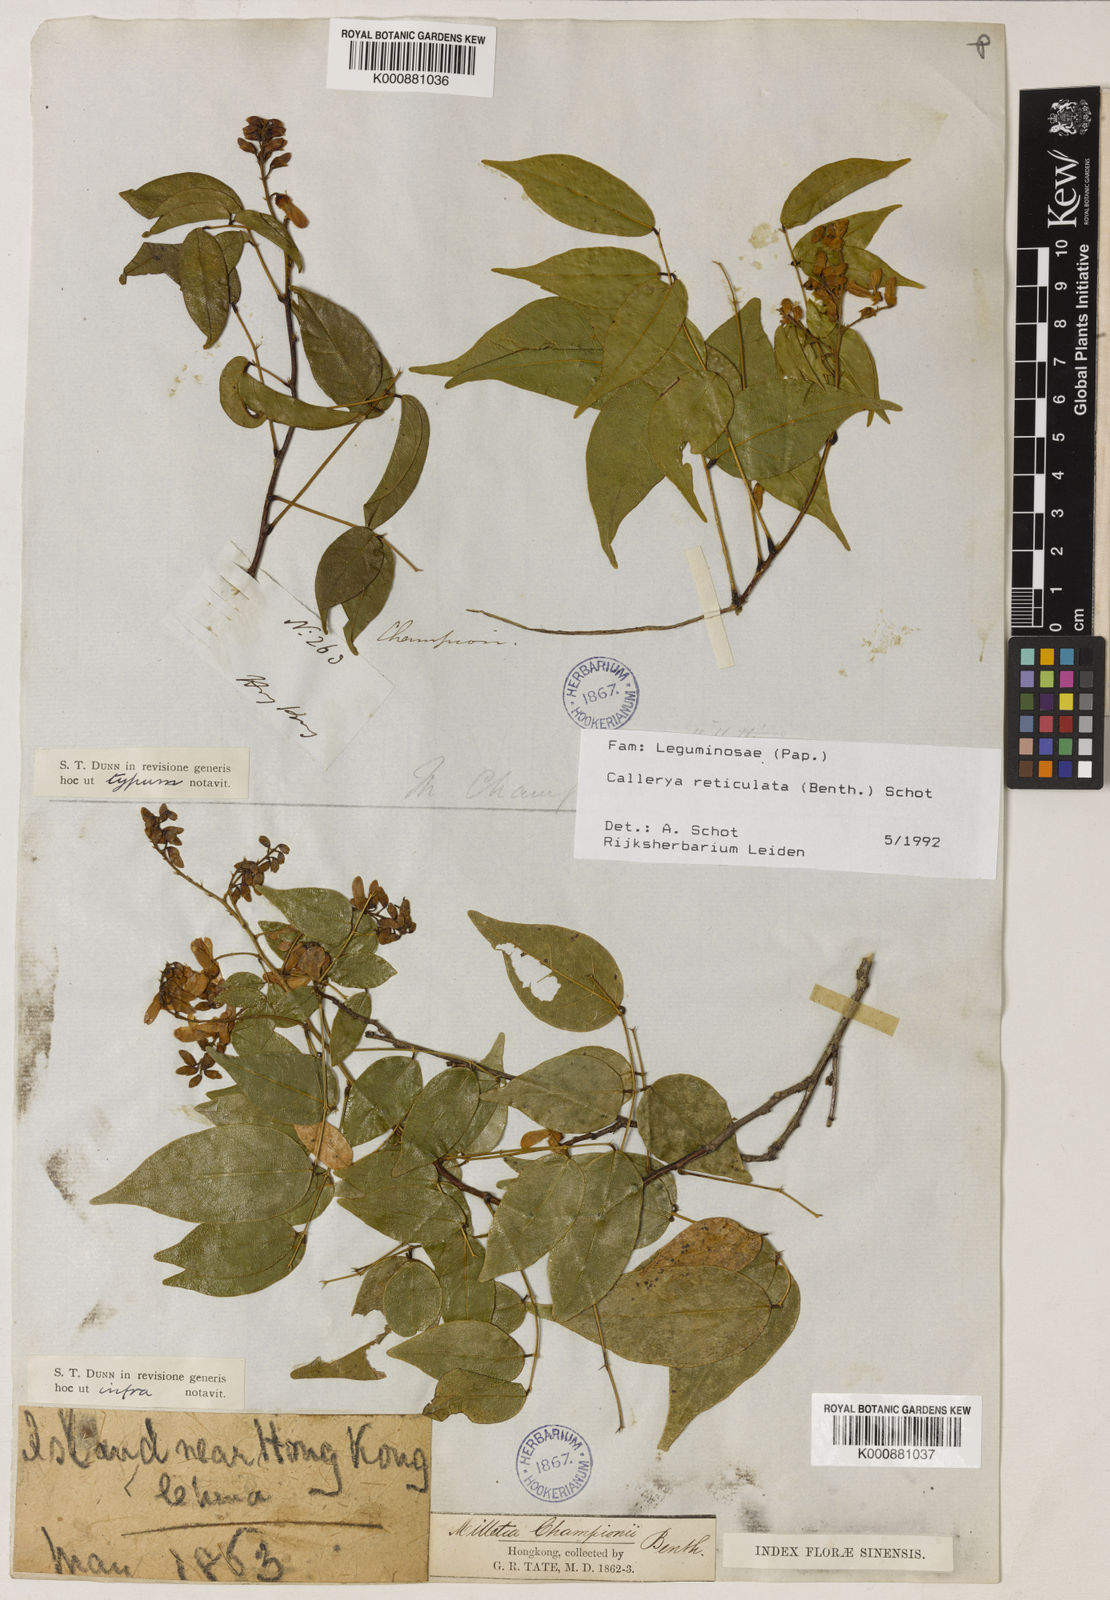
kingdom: Plantae
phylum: Tracheophyta
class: Magnoliopsida
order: Fabales
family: Fabaceae
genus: Wisteriopsis
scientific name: Wisteriopsis reticulata
